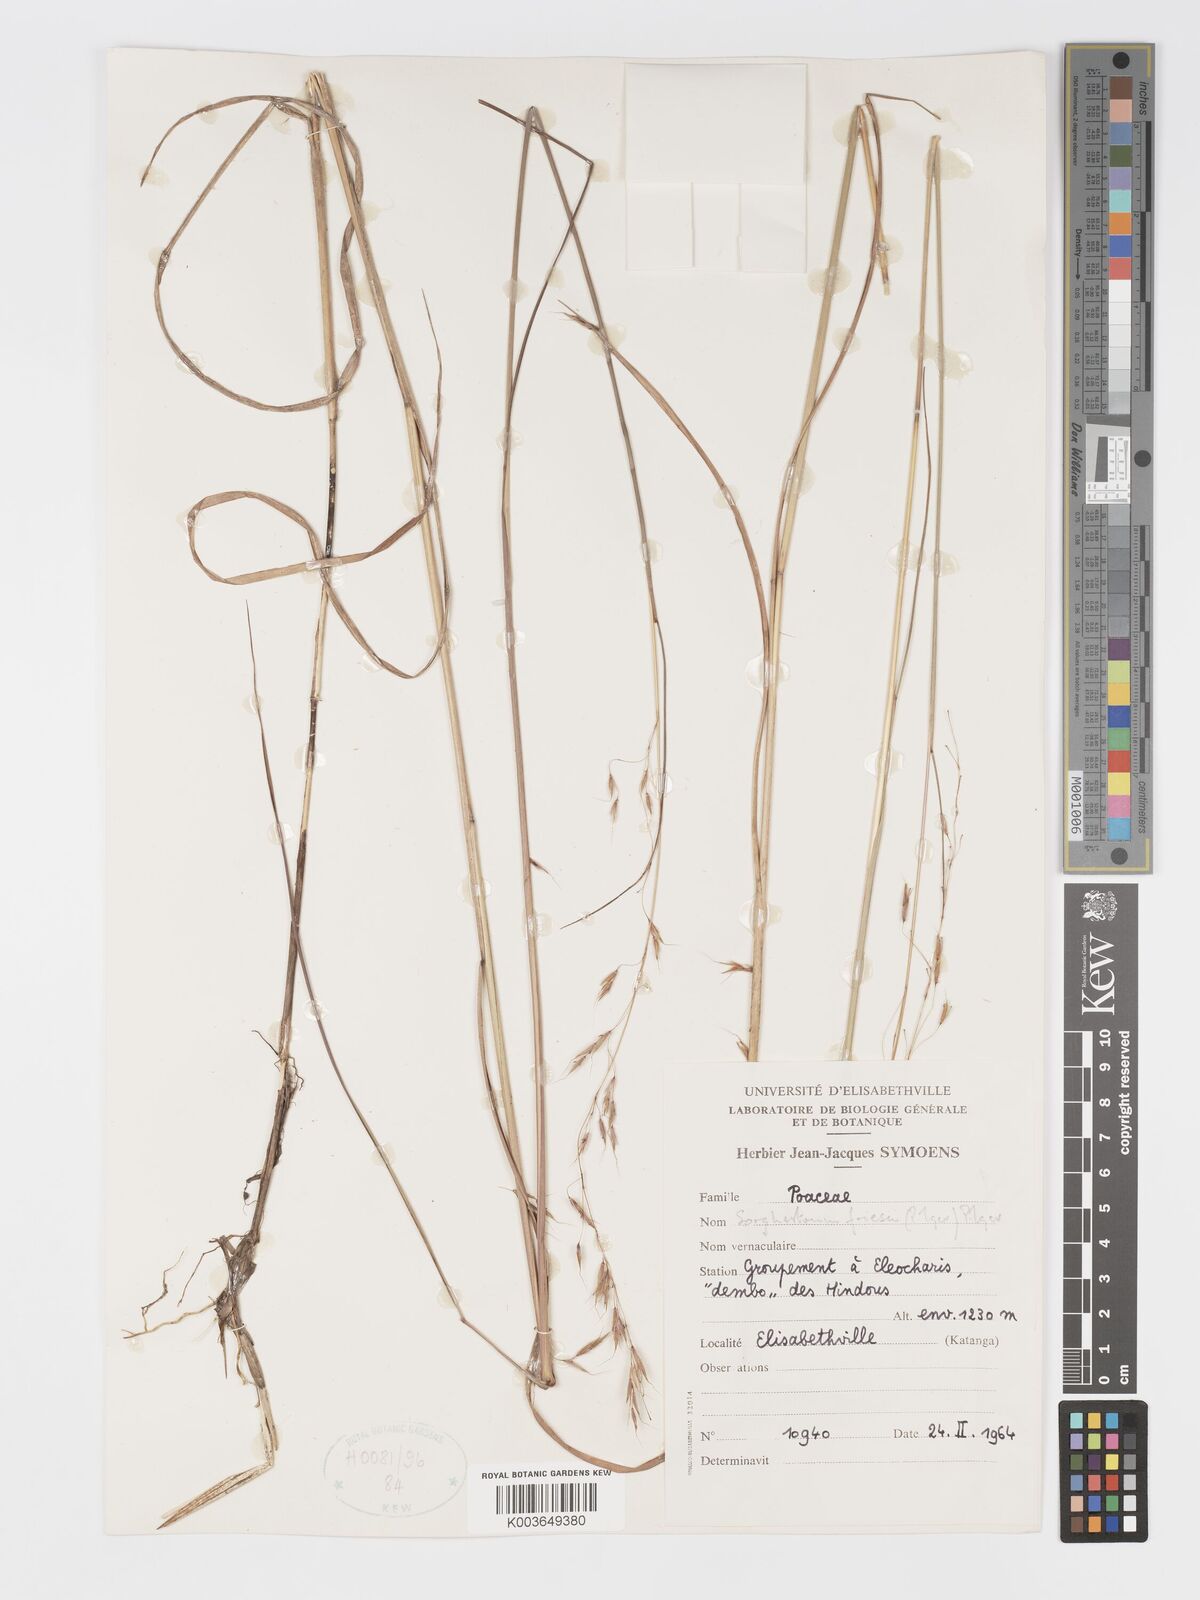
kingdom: Plantae
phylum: Tracheophyta
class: Liliopsida
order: Poales
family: Poaceae
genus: Sorghastrum
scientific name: Sorghastrum nudipes
